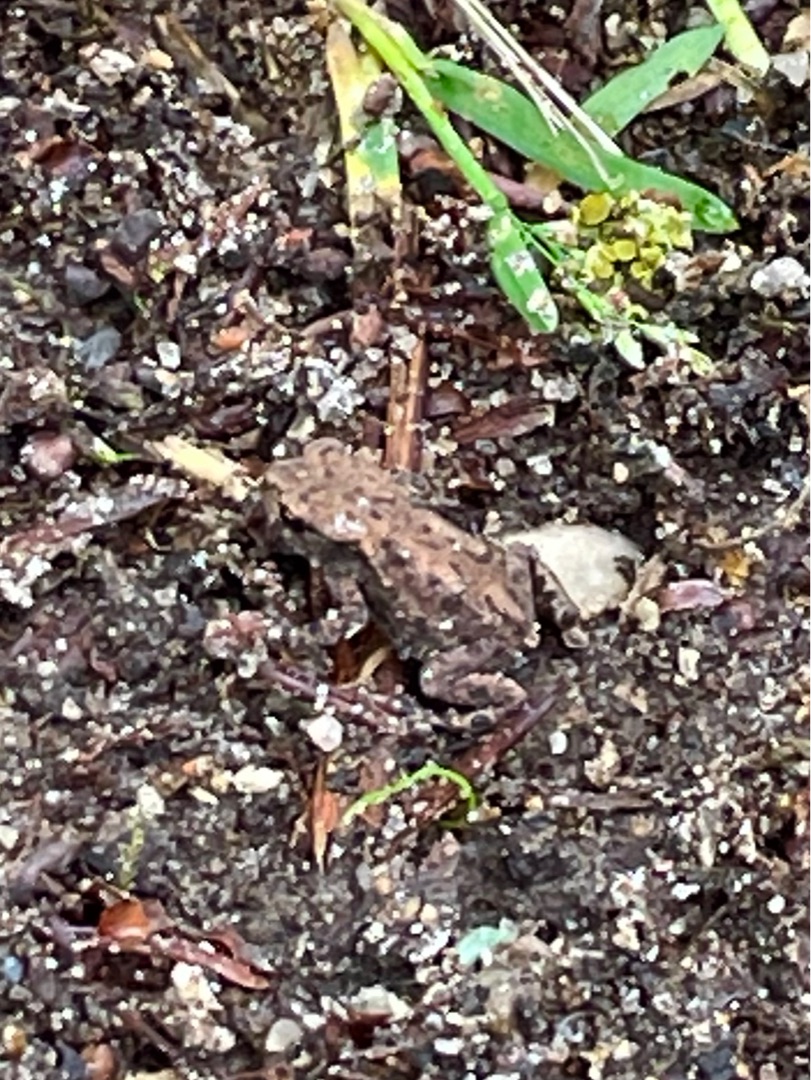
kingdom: Animalia
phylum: Chordata
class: Amphibia
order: Anura
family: Bufonidae
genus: Bufo
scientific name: Bufo bufo
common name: Skrubtudse
